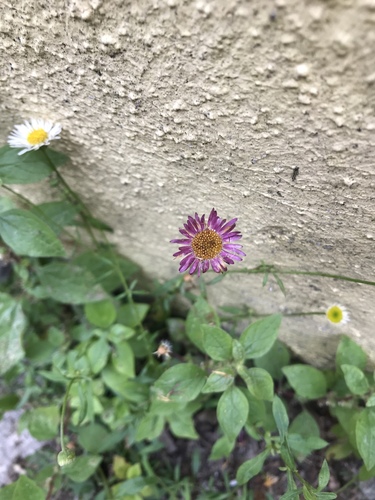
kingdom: Plantae
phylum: Tracheophyta
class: Magnoliopsida
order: Asterales
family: Asteraceae
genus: Erigeron
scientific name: Erigeron karvinskianus
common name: Mexican fleabane
